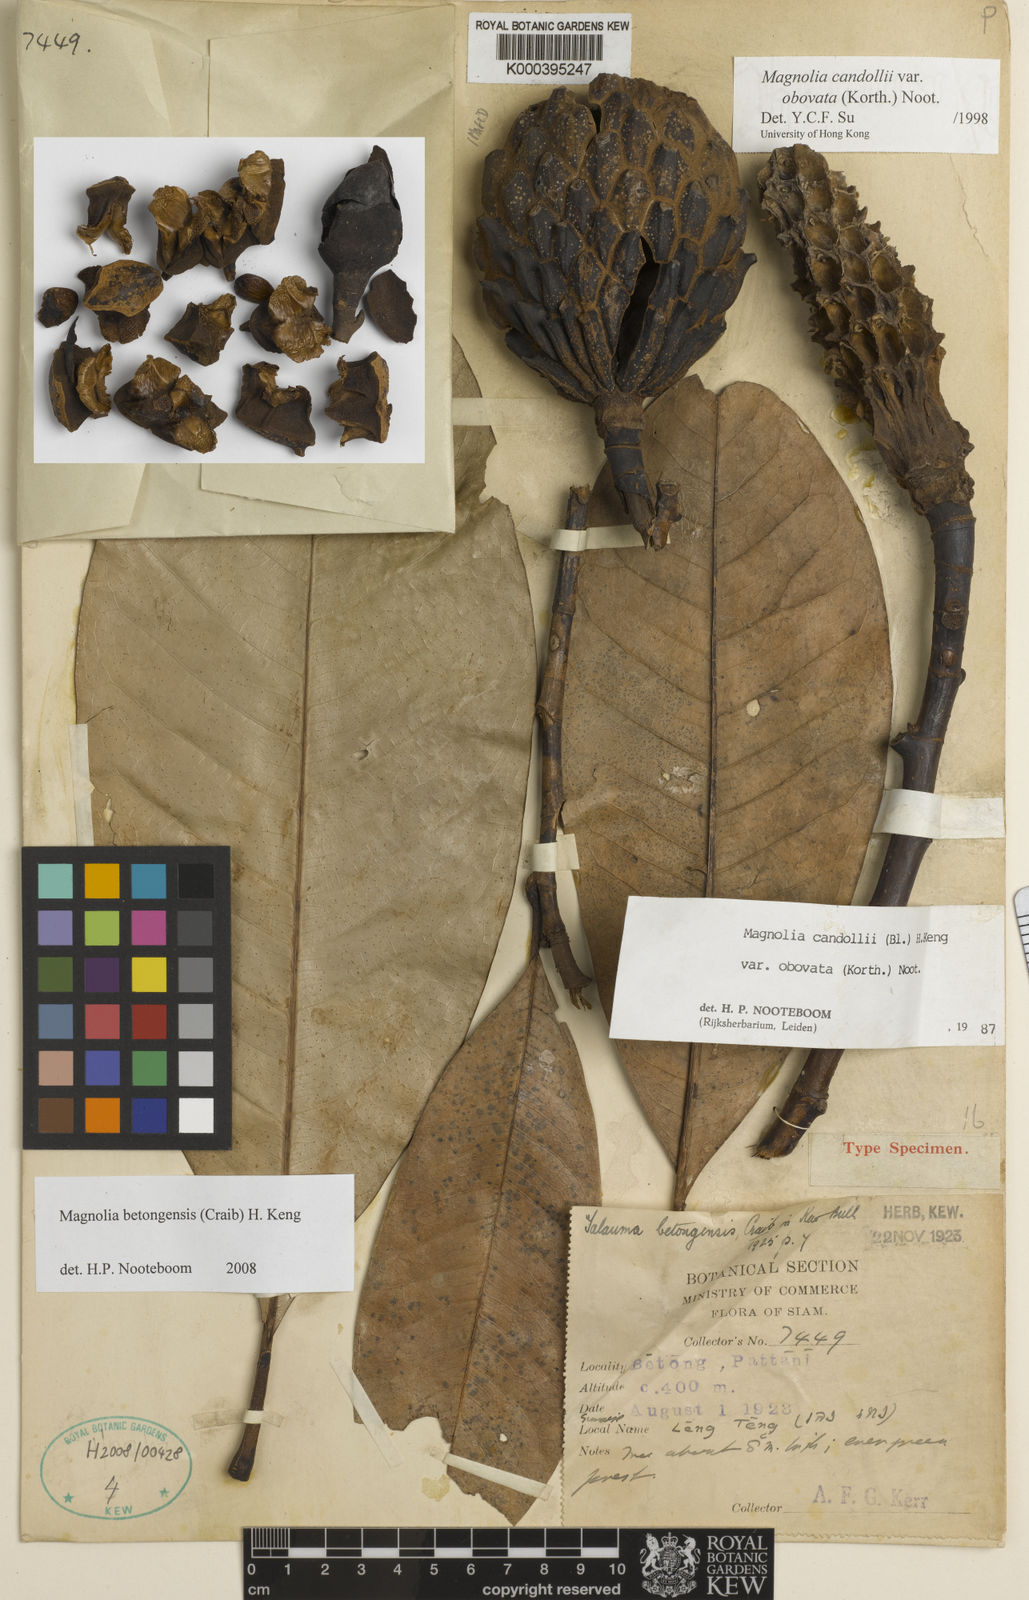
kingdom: Plantae
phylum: Tracheophyta
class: Magnoliopsida
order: Magnoliales
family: Magnoliaceae
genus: Magnolia
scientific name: Magnolia betongensis
